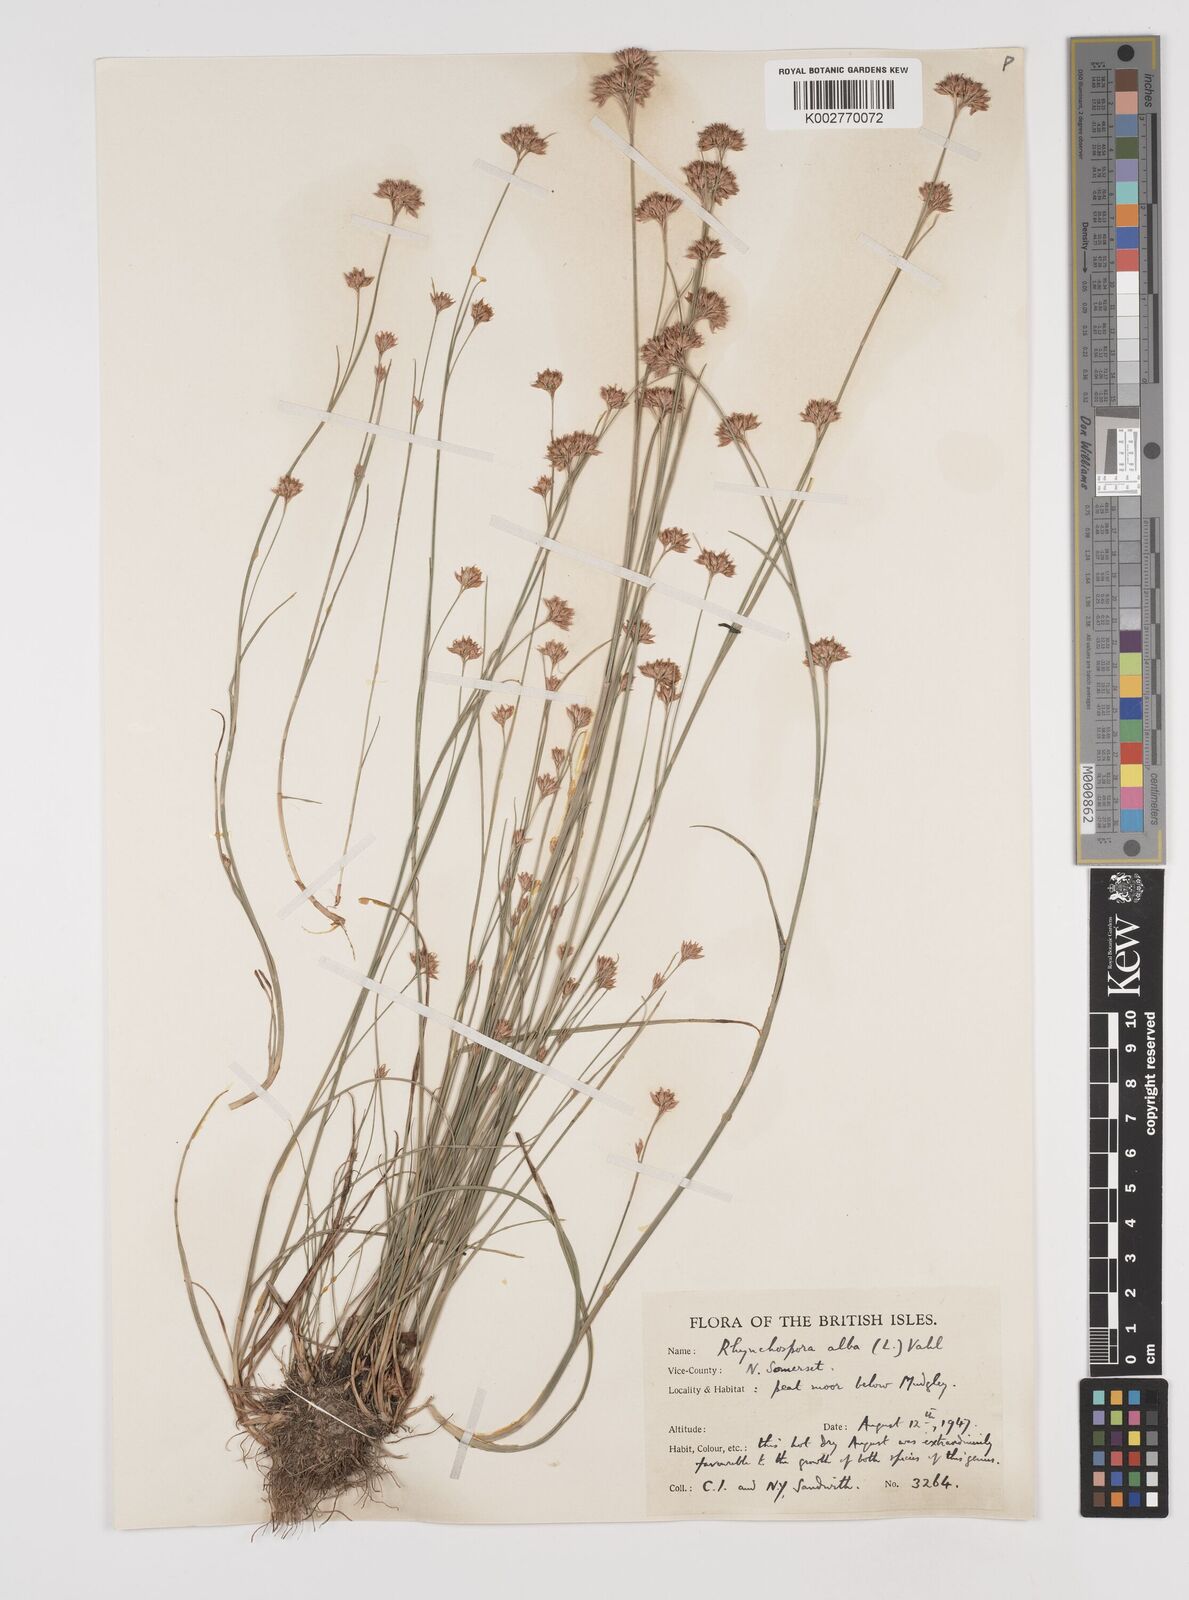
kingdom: Plantae
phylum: Tracheophyta
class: Liliopsida
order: Poales
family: Cyperaceae
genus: Rhynchospora
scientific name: Rhynchospora alba
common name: White beak-sedge
